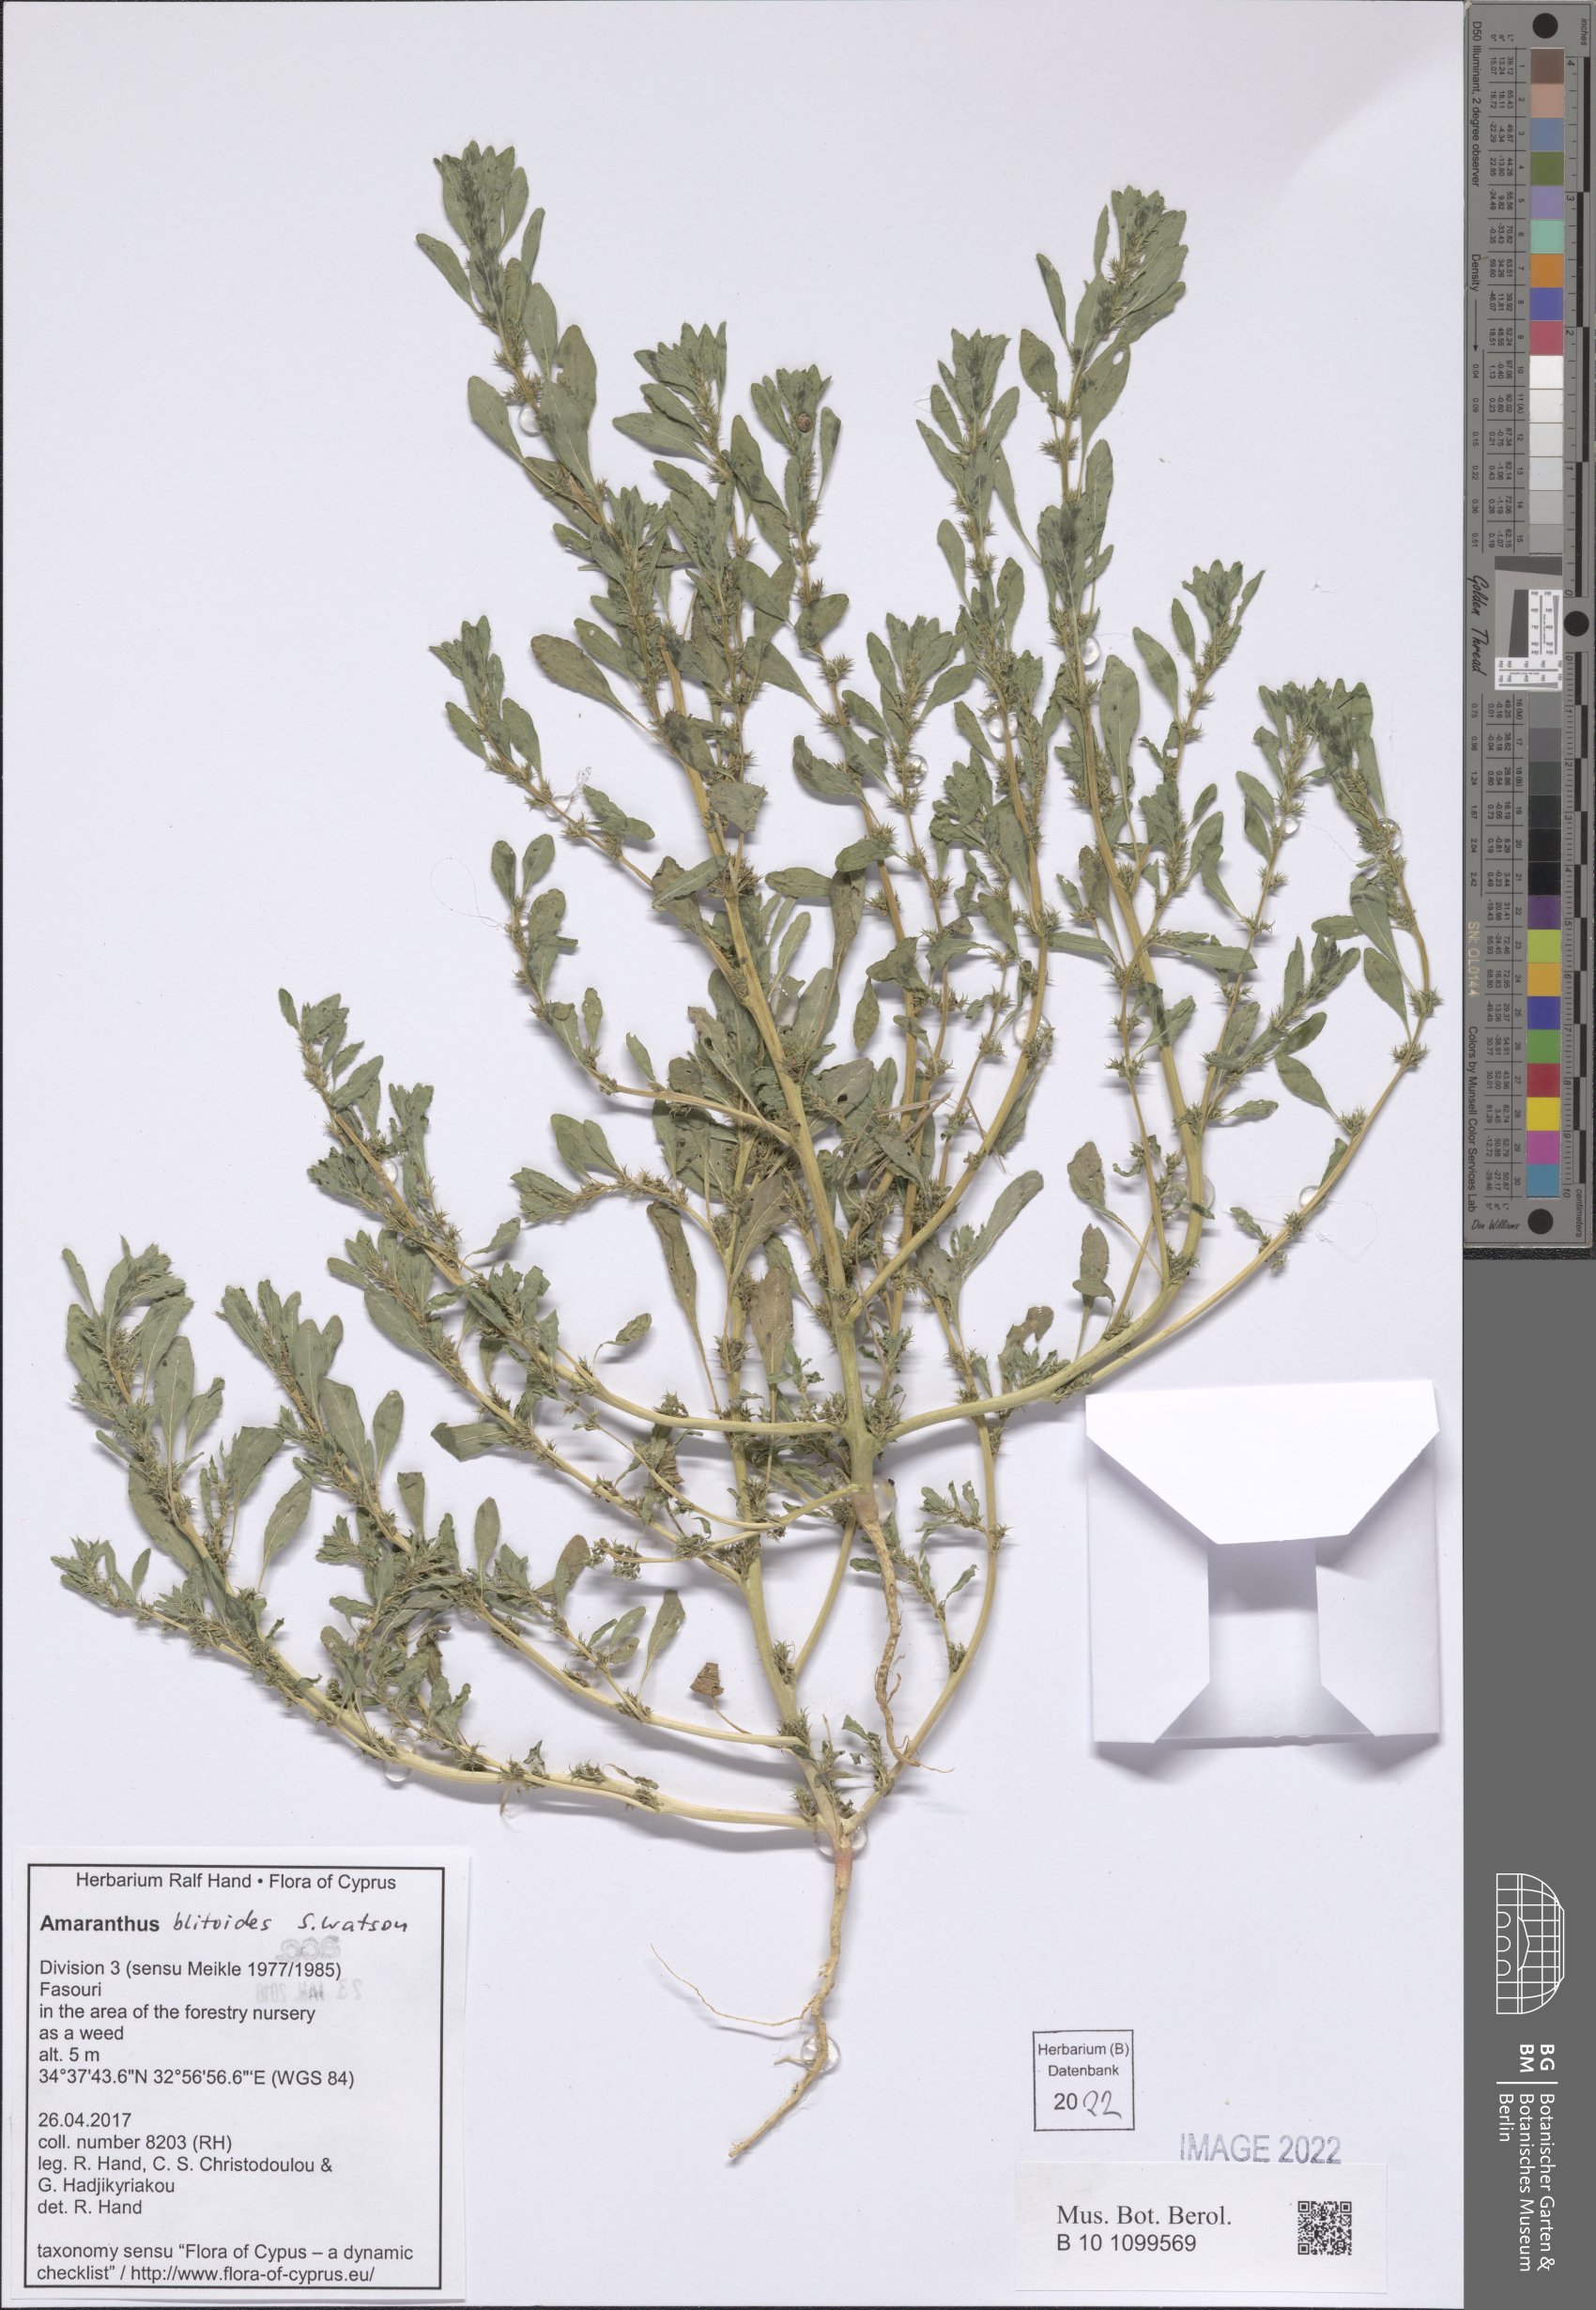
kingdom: Plantae
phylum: Tracheophyta
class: Magnoliopsida
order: Caryophyllales
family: Amaranthaceae
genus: Amaranthus
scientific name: Amaranthus blitoides
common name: Prostrate pigweed
